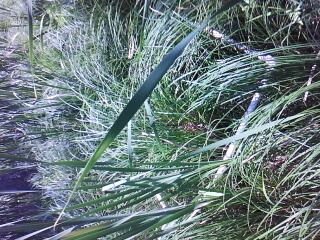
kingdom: Plantae
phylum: Tracheophyta
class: Magnoliopsida
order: Myrtales
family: Lythraceae
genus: Lythrum
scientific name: Lythrum salicaria
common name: Purple loosestrife
